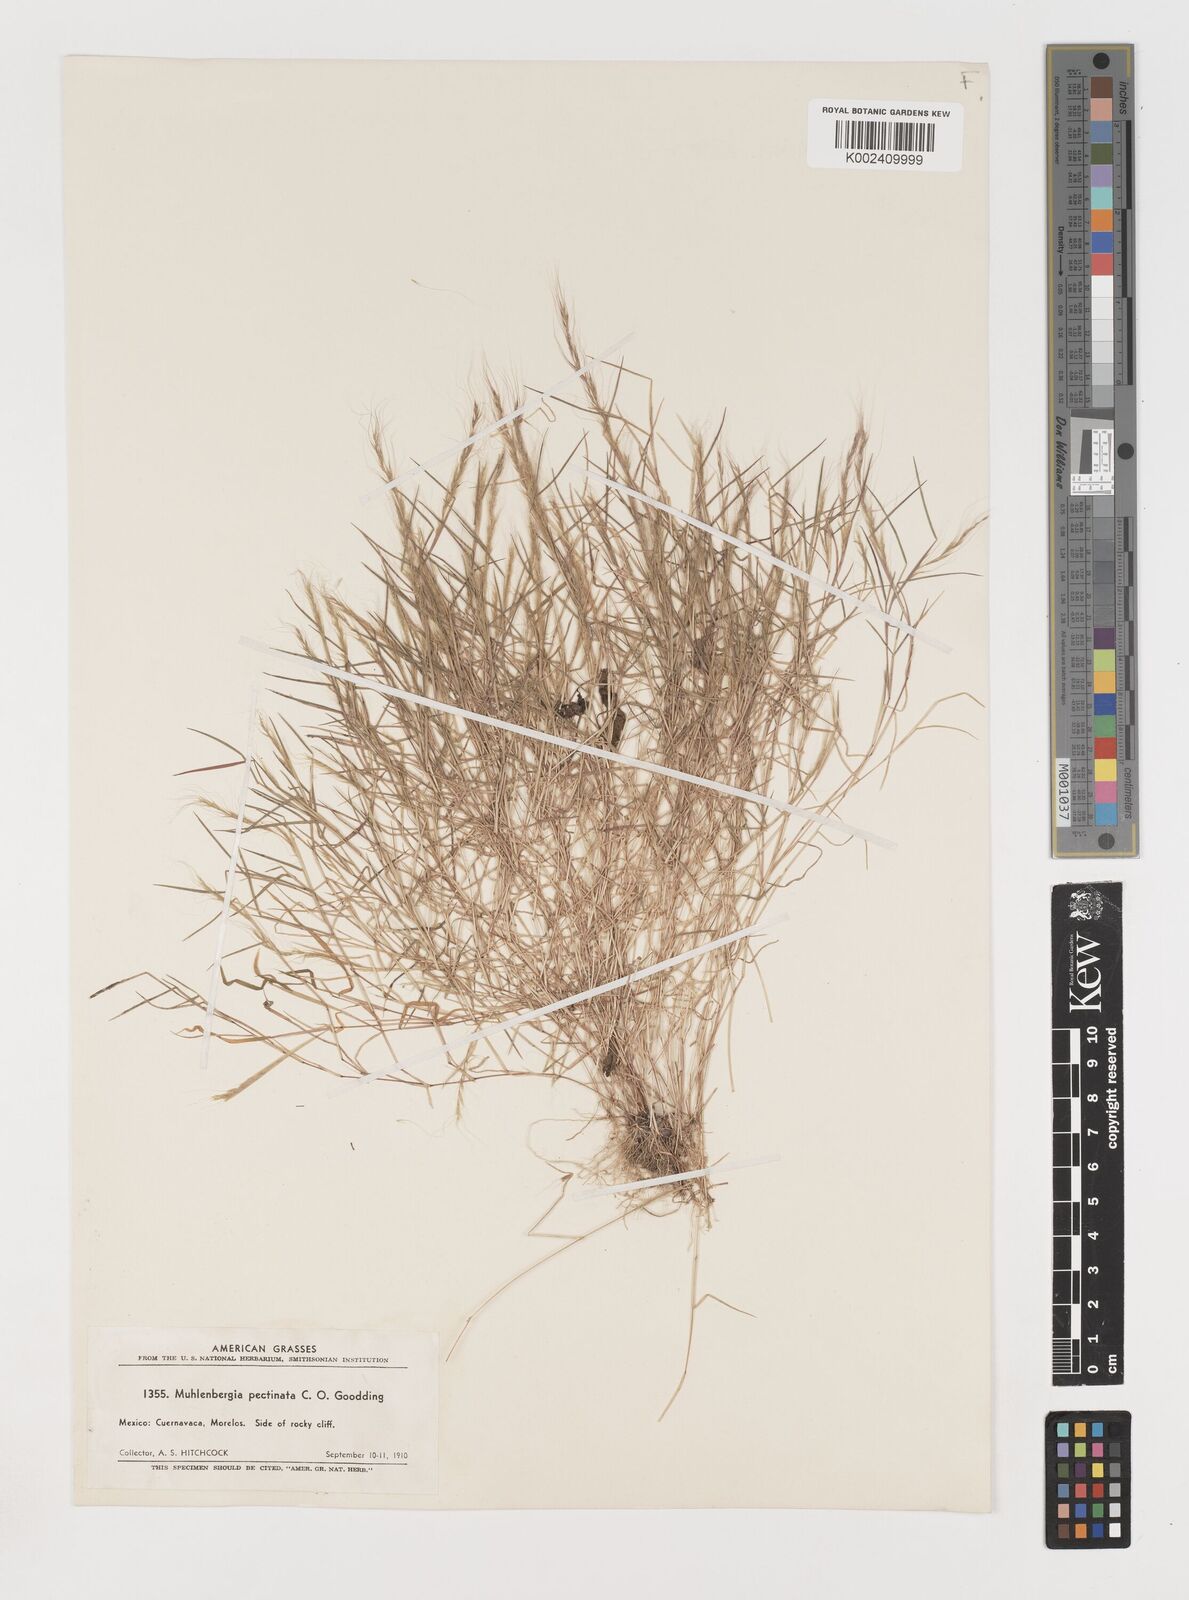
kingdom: Plantae
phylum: Tracheophyta
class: Liliopsida
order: Poales
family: Poaceae
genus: Muhlenbergia
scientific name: Muhlenbergia pectinata
